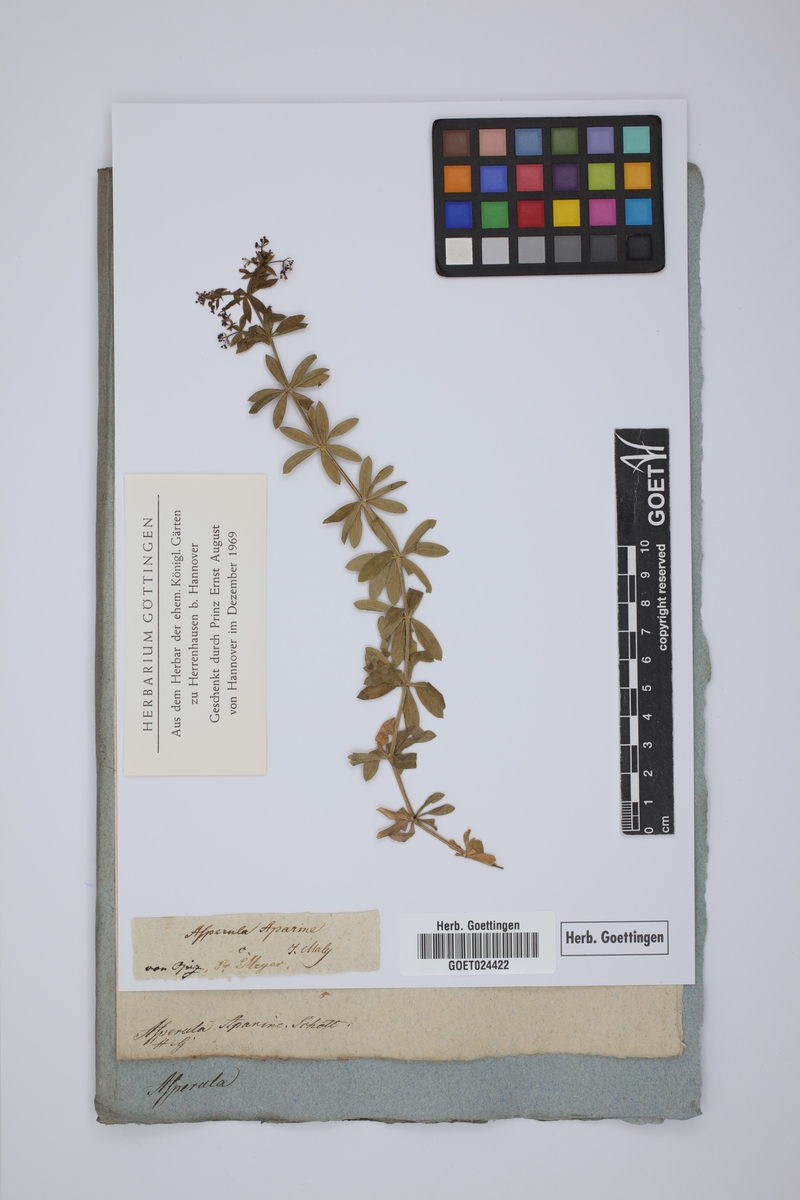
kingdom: Plantae
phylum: Tracheophyta
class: Magnoliopsida
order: Gentianales
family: Rubiaceae
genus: Galium
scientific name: Galium pseudorivale
